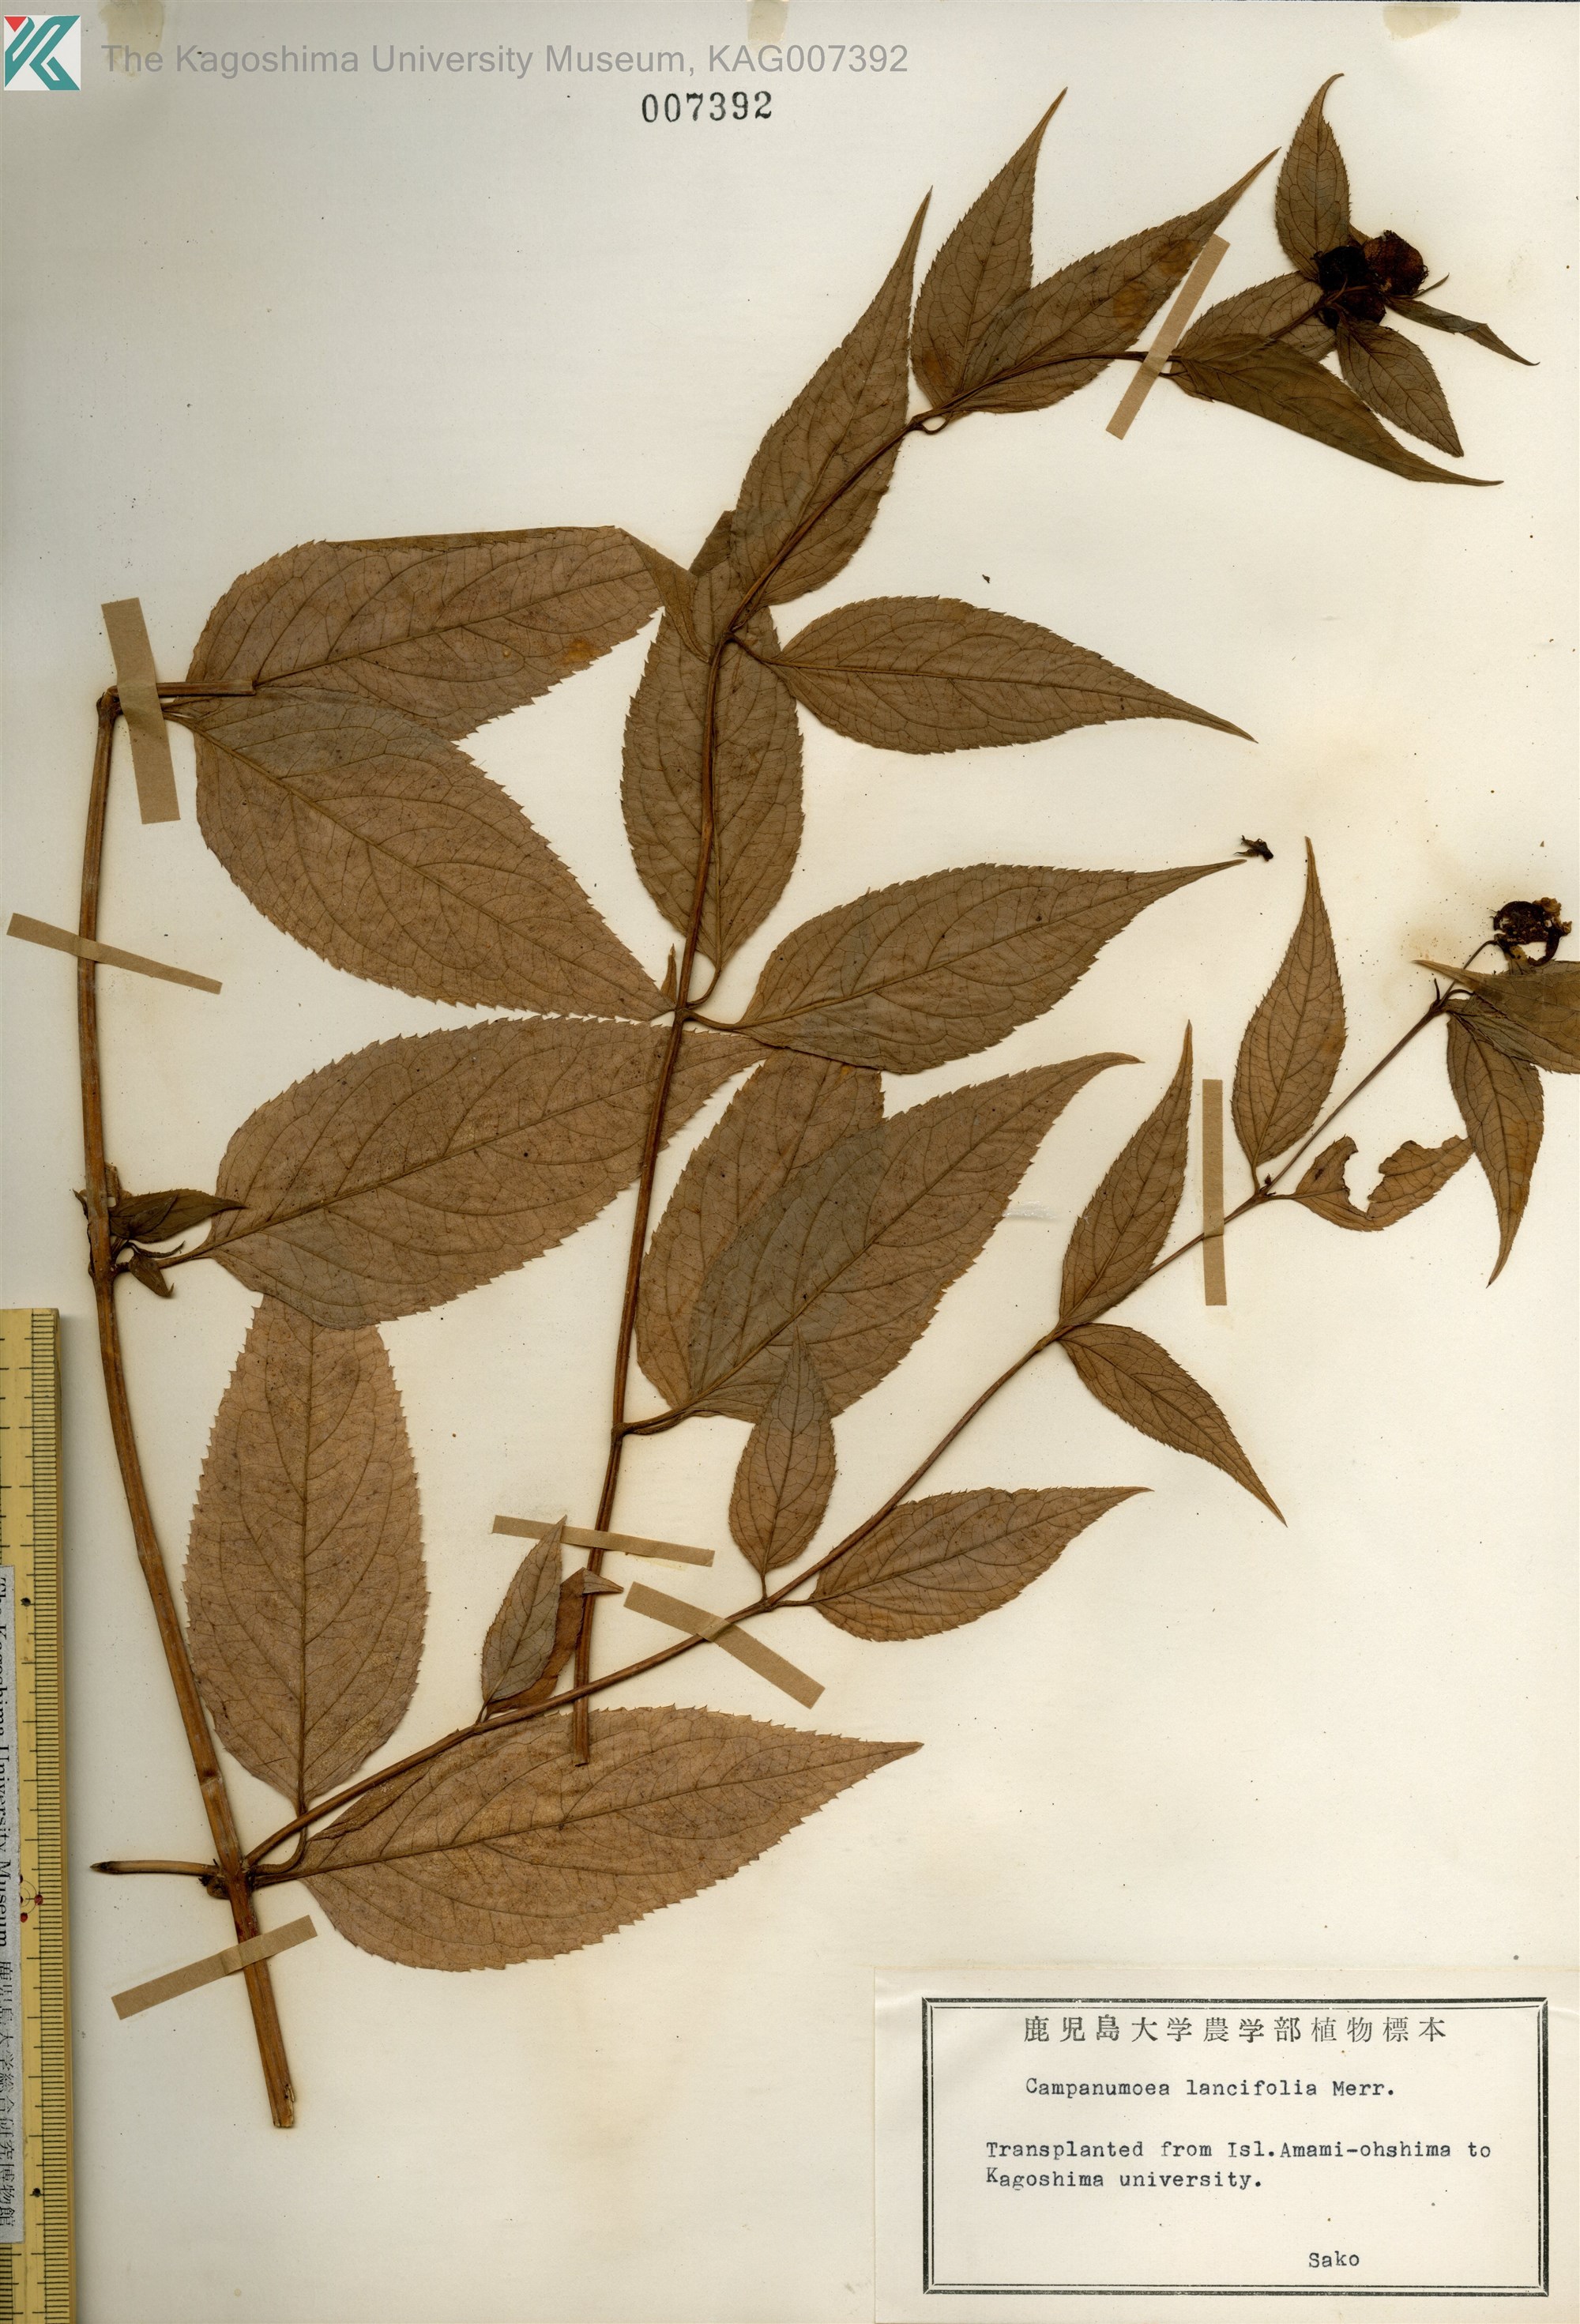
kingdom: Plantae
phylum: Tracheophyta
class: Magnoliopsida
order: Asterales
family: Campanulaceae
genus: Cyclocodon
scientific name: Cyclocodon lancifolius
